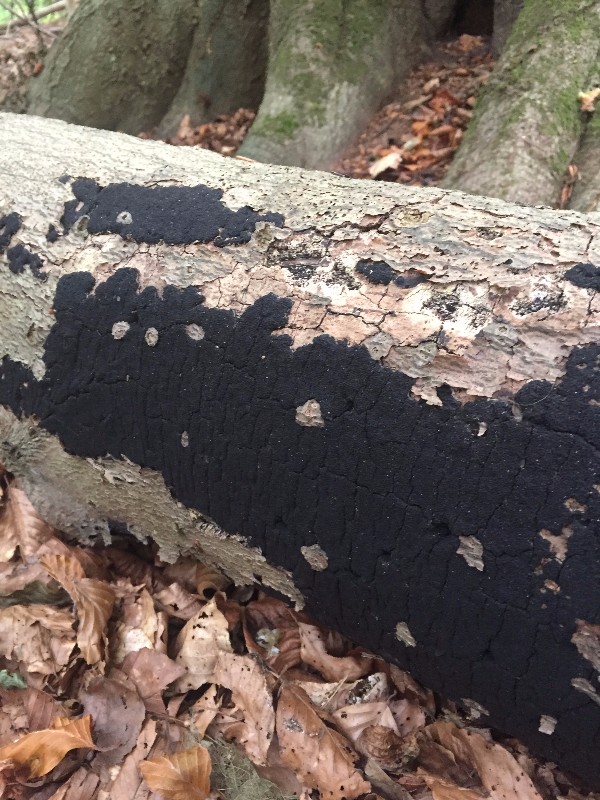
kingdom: Fungi
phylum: Ascomycota
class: Sordariomycetes
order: Xylariales
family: Diatrypaceae
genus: Eutypa
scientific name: Eutypa spinosa
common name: grov kulskorpe
